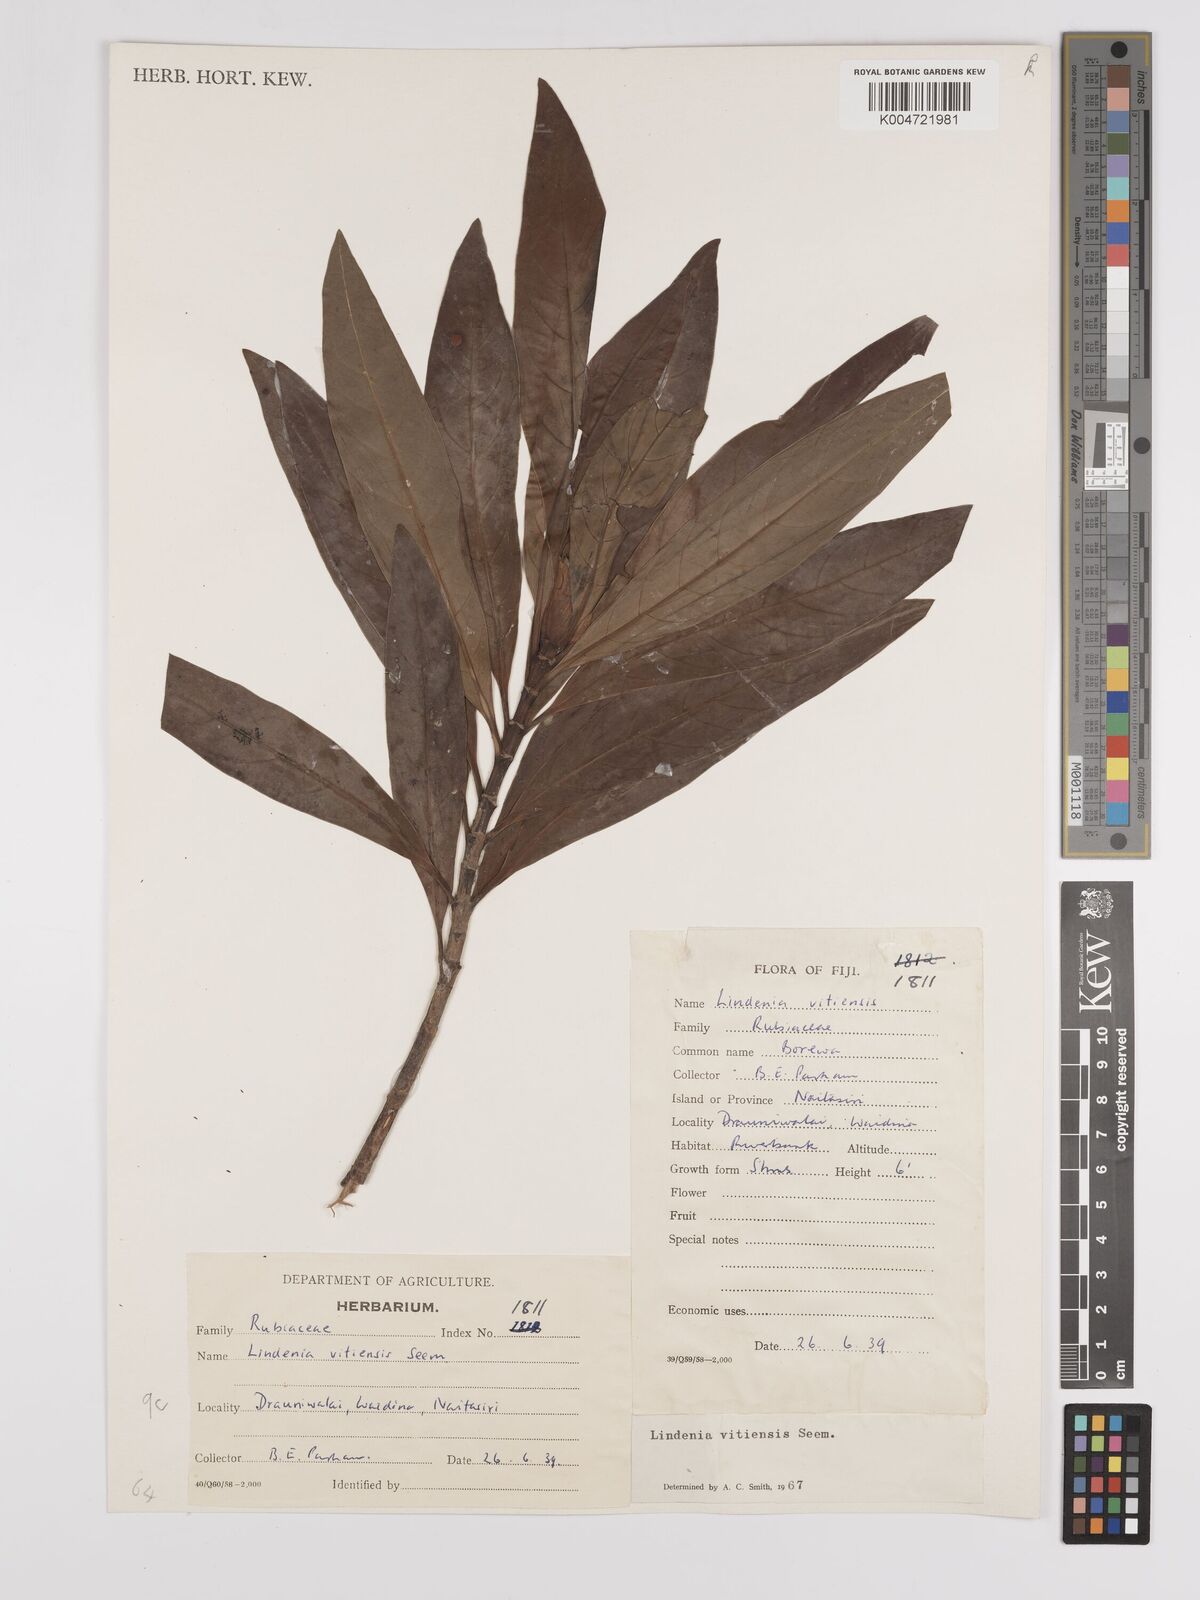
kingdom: Plantae
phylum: Tracheophyta
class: Magnoliopsida
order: Gentianales
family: Rubiaceae
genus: Augusta
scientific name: Augusta vitiensis
